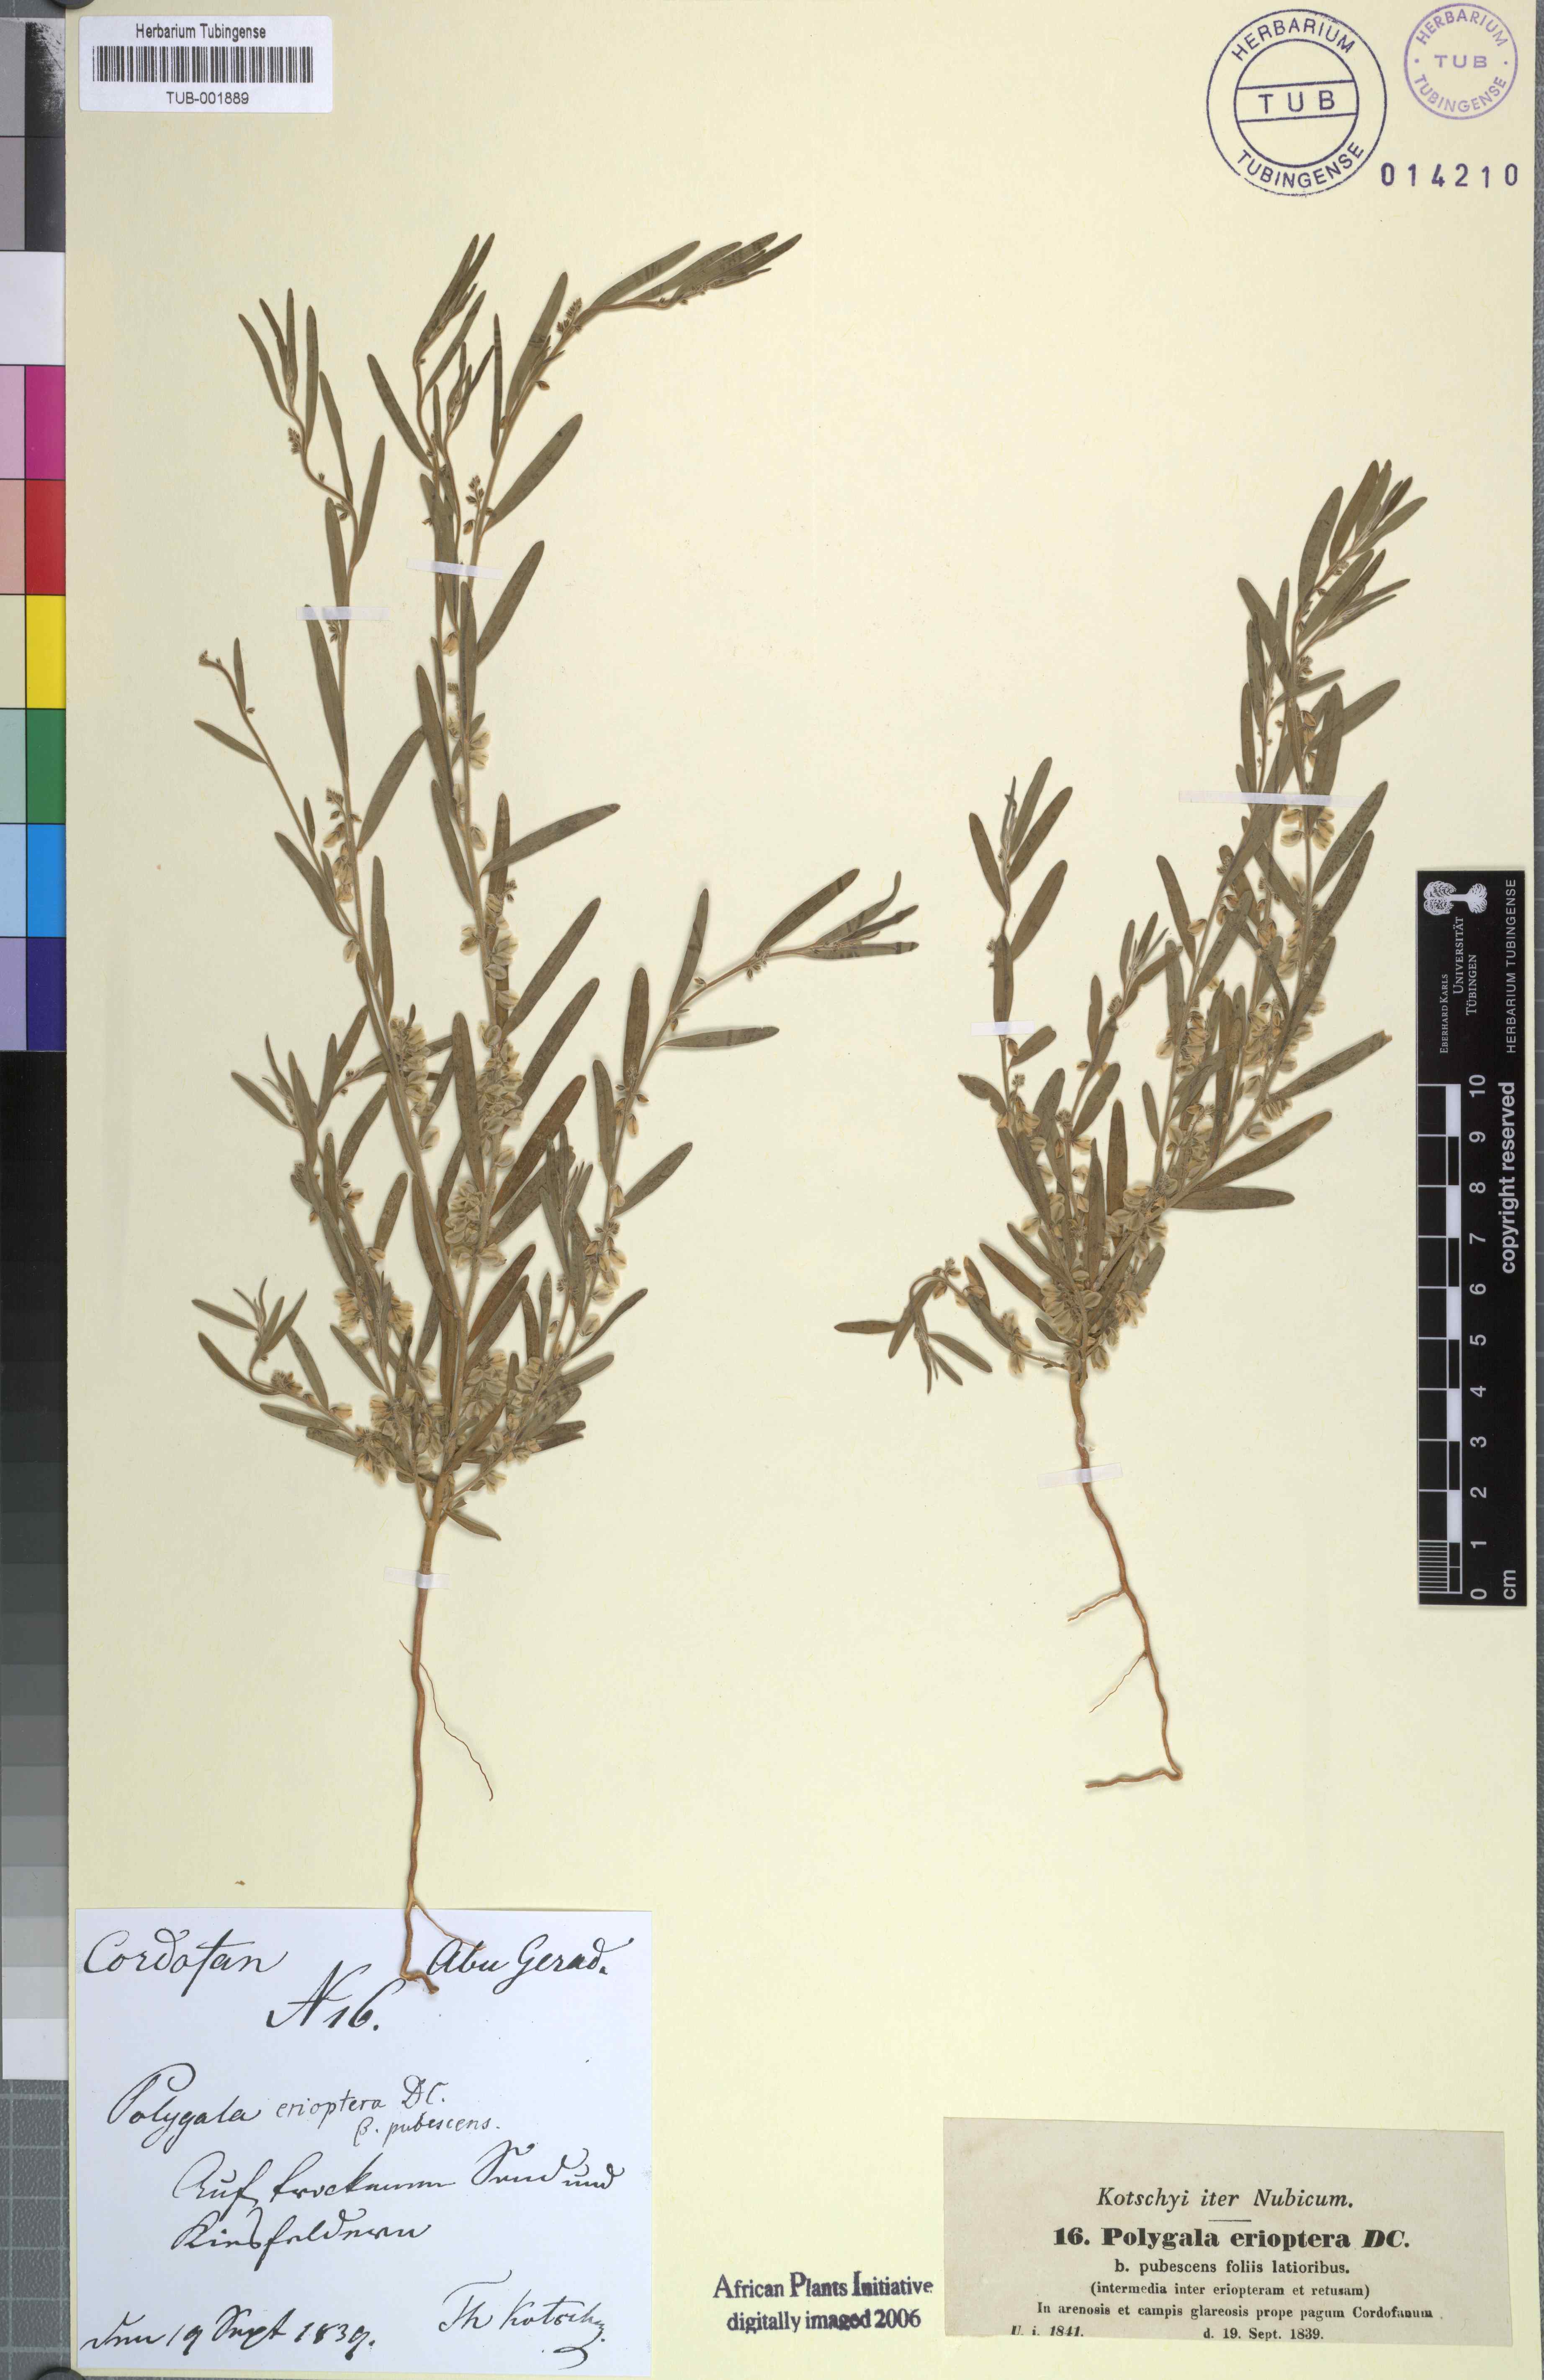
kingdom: Plantae
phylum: Tracheophyta
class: Magnoliopsida
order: Fabales
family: Polygalaceae
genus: Polygala
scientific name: Polygala erioptera
